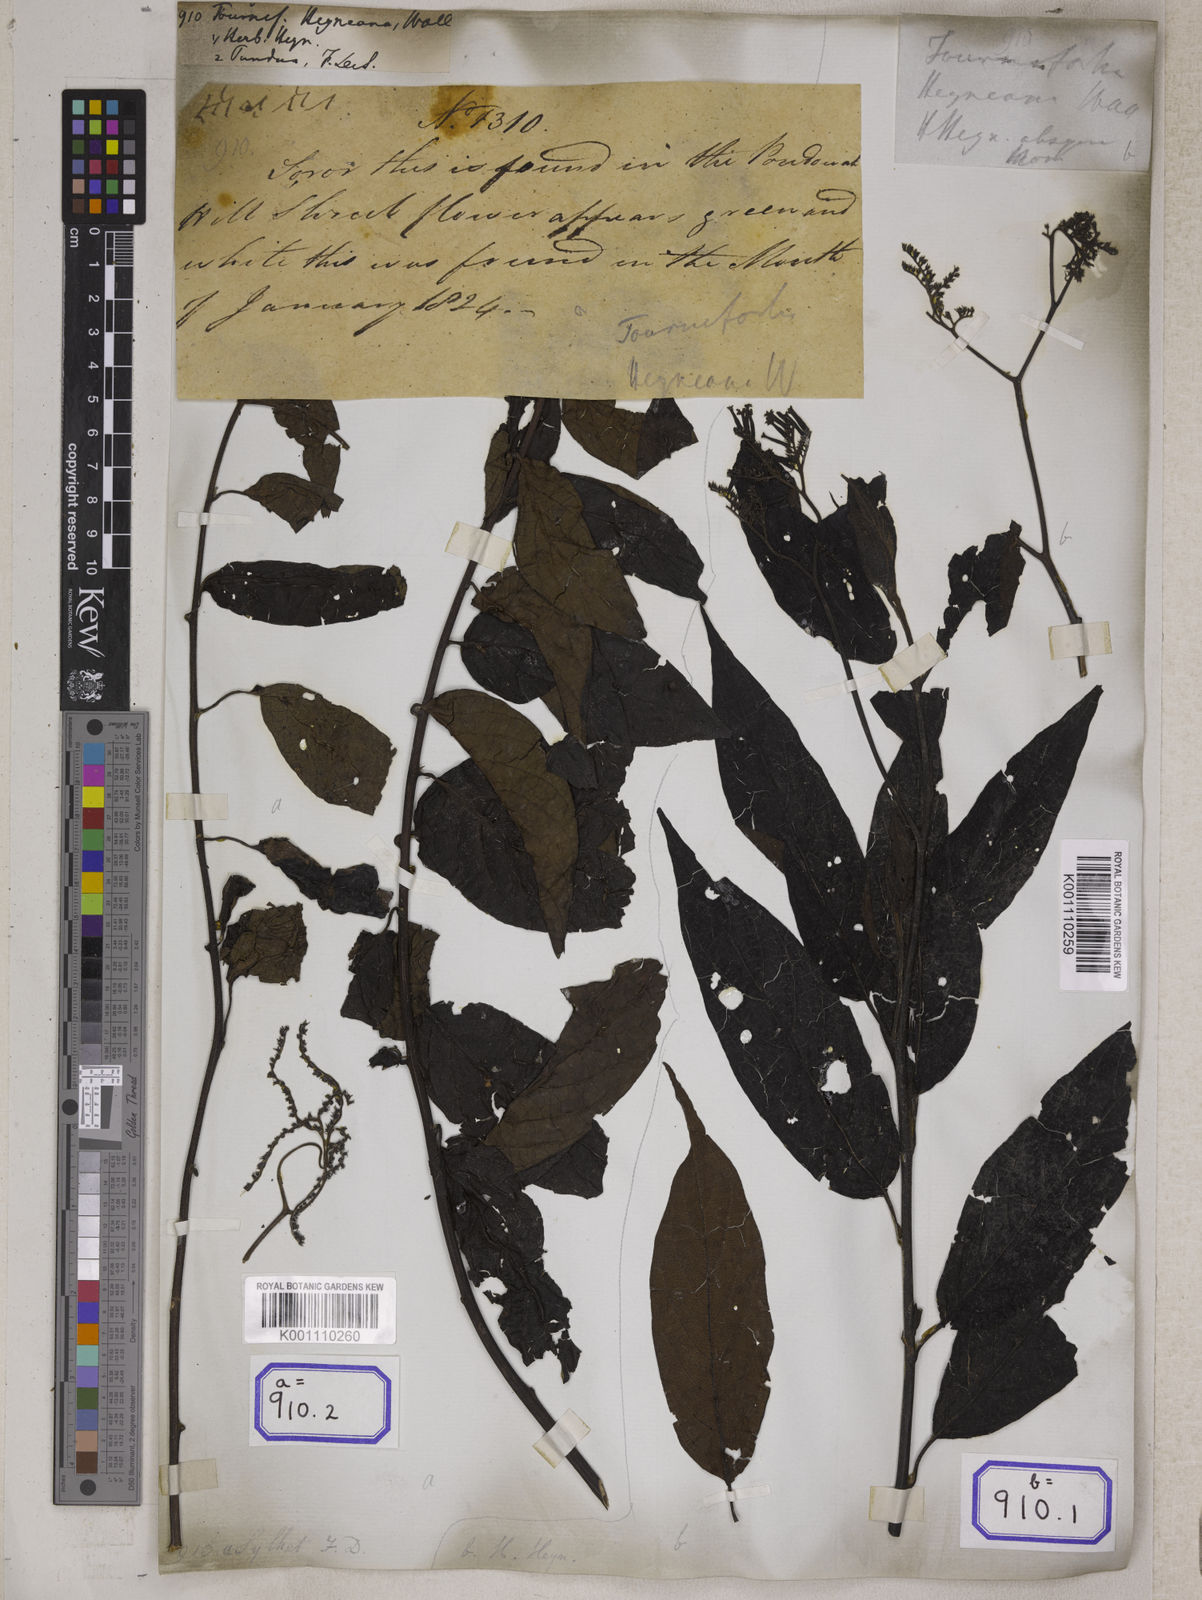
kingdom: Plantae
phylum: Tracheophyta
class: Magnoliopsida
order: Boraginales
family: Heliotropiaceae
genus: Tournefortia
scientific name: Tournefortia
